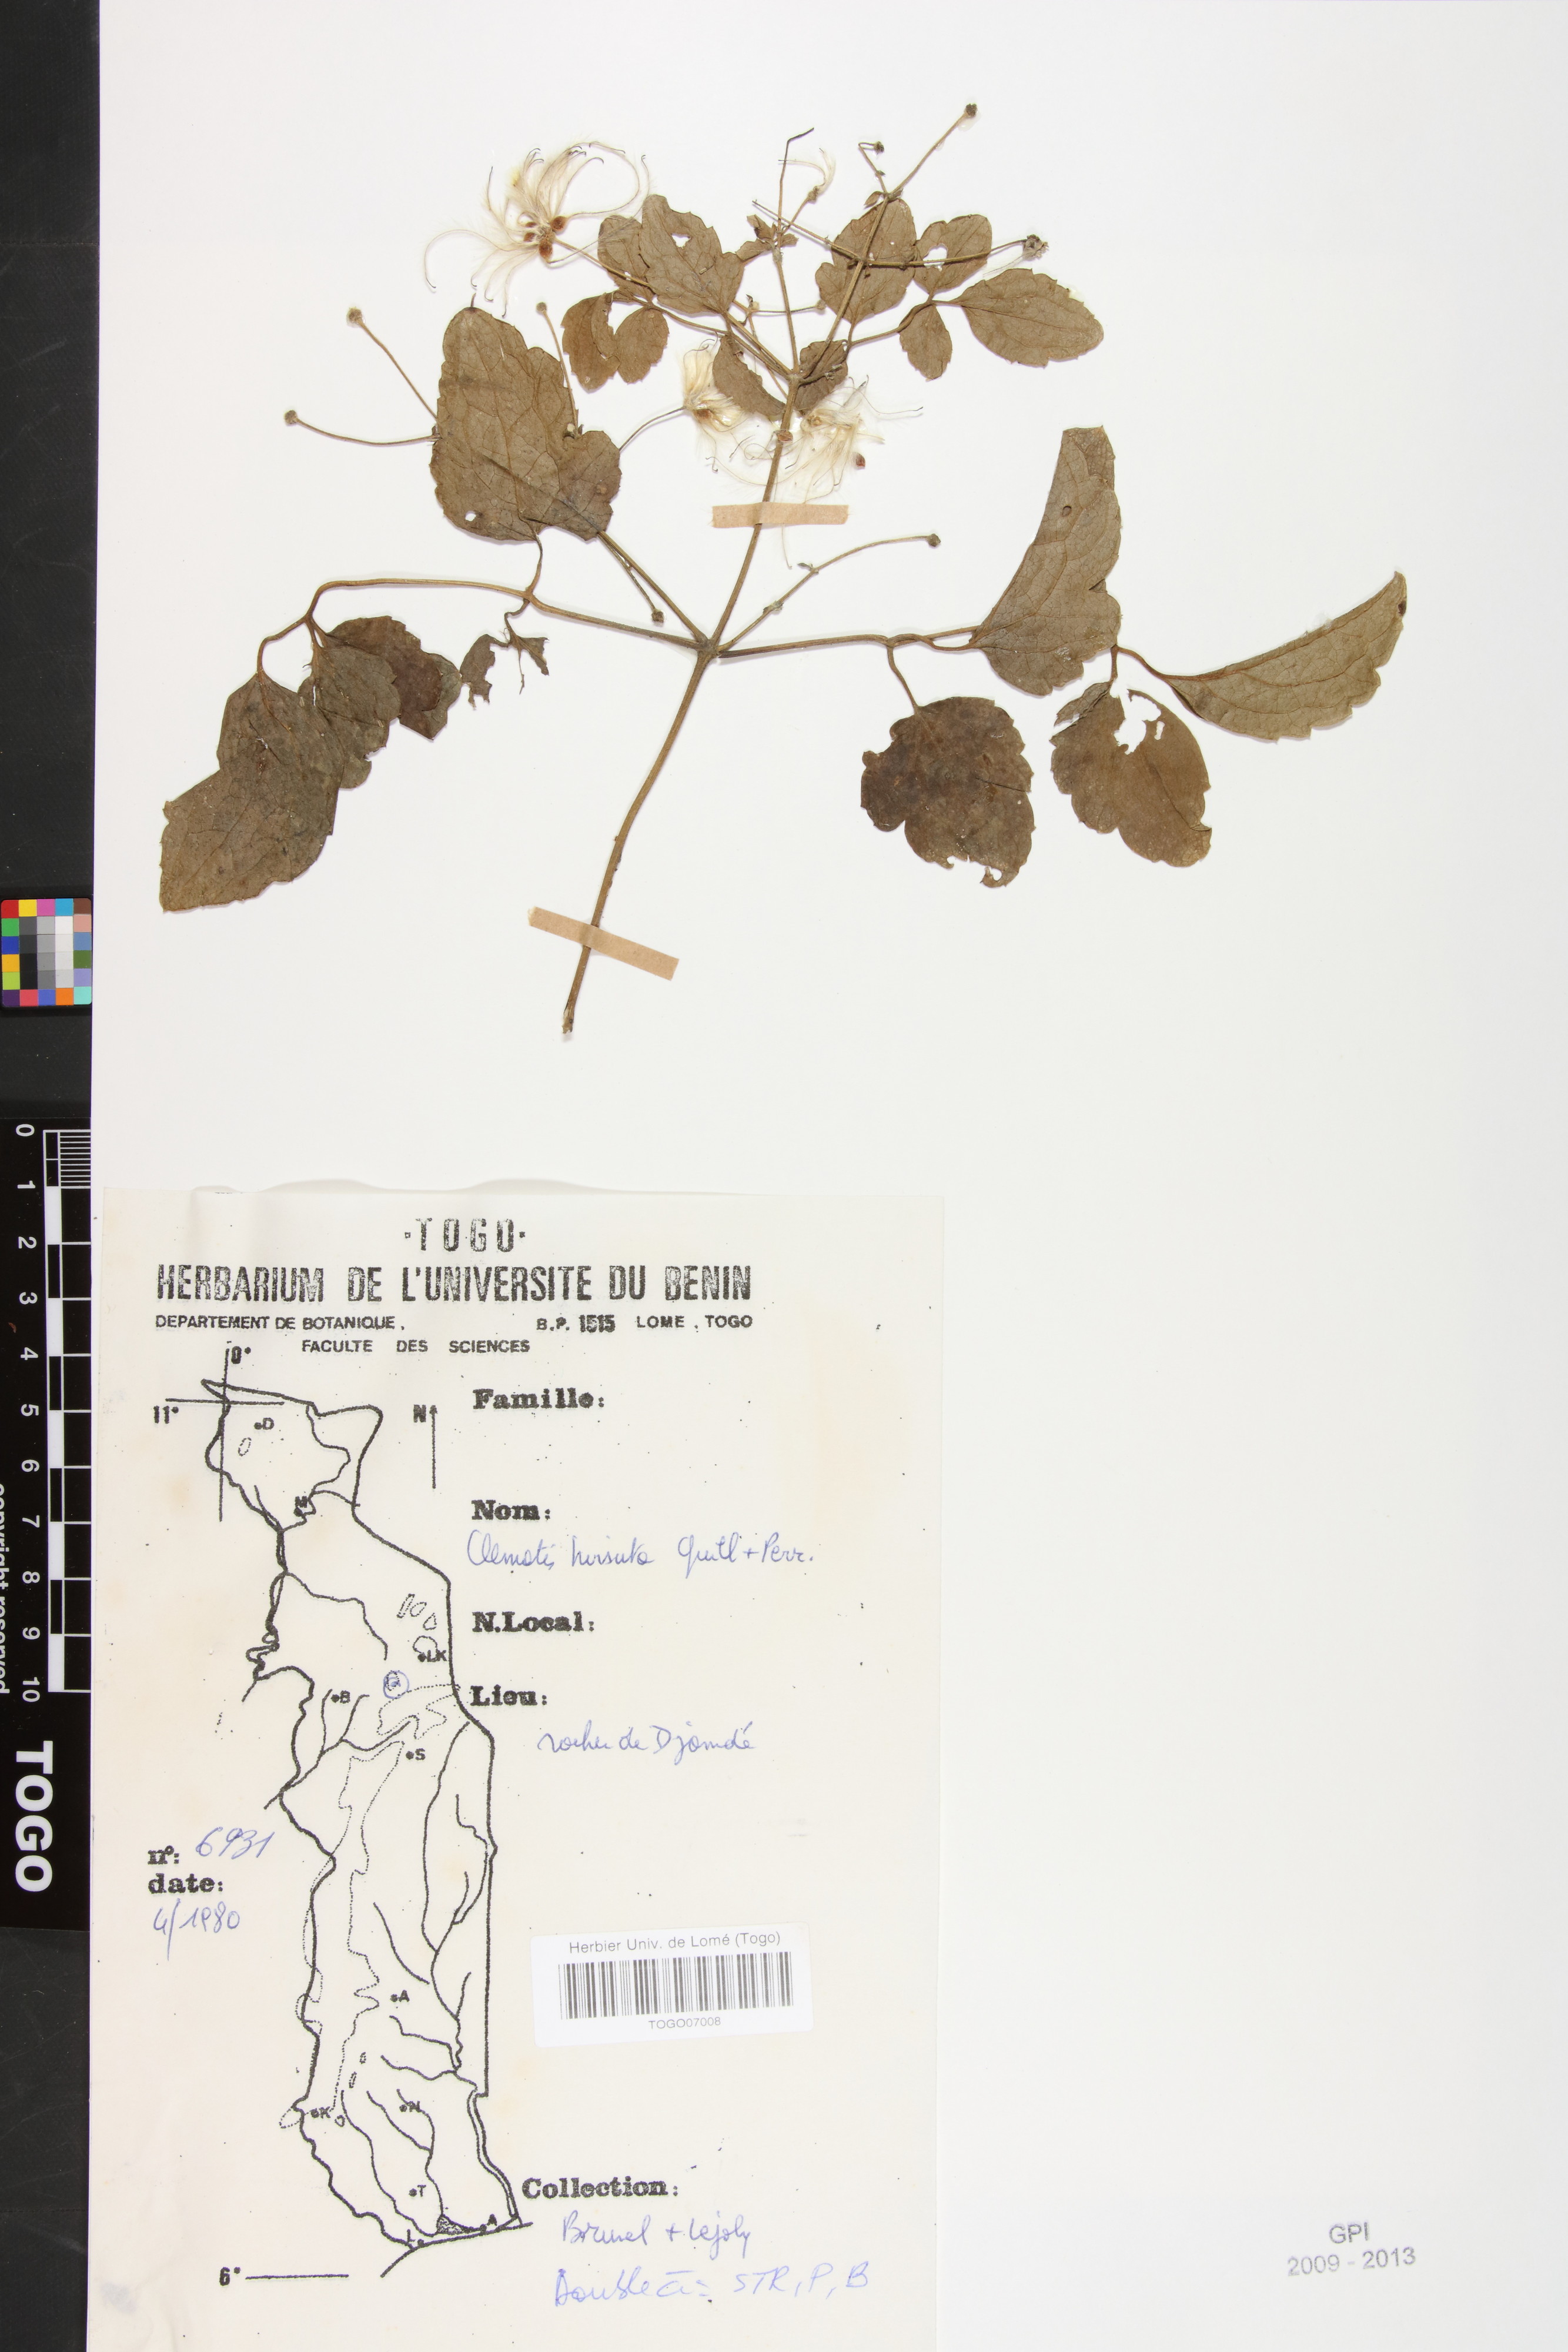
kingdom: Plantae
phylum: Tracheophyta
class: Magnoliopsida
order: Ranunculales
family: Ranunculaceae
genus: Clematis
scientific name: Clematis hirsuta
